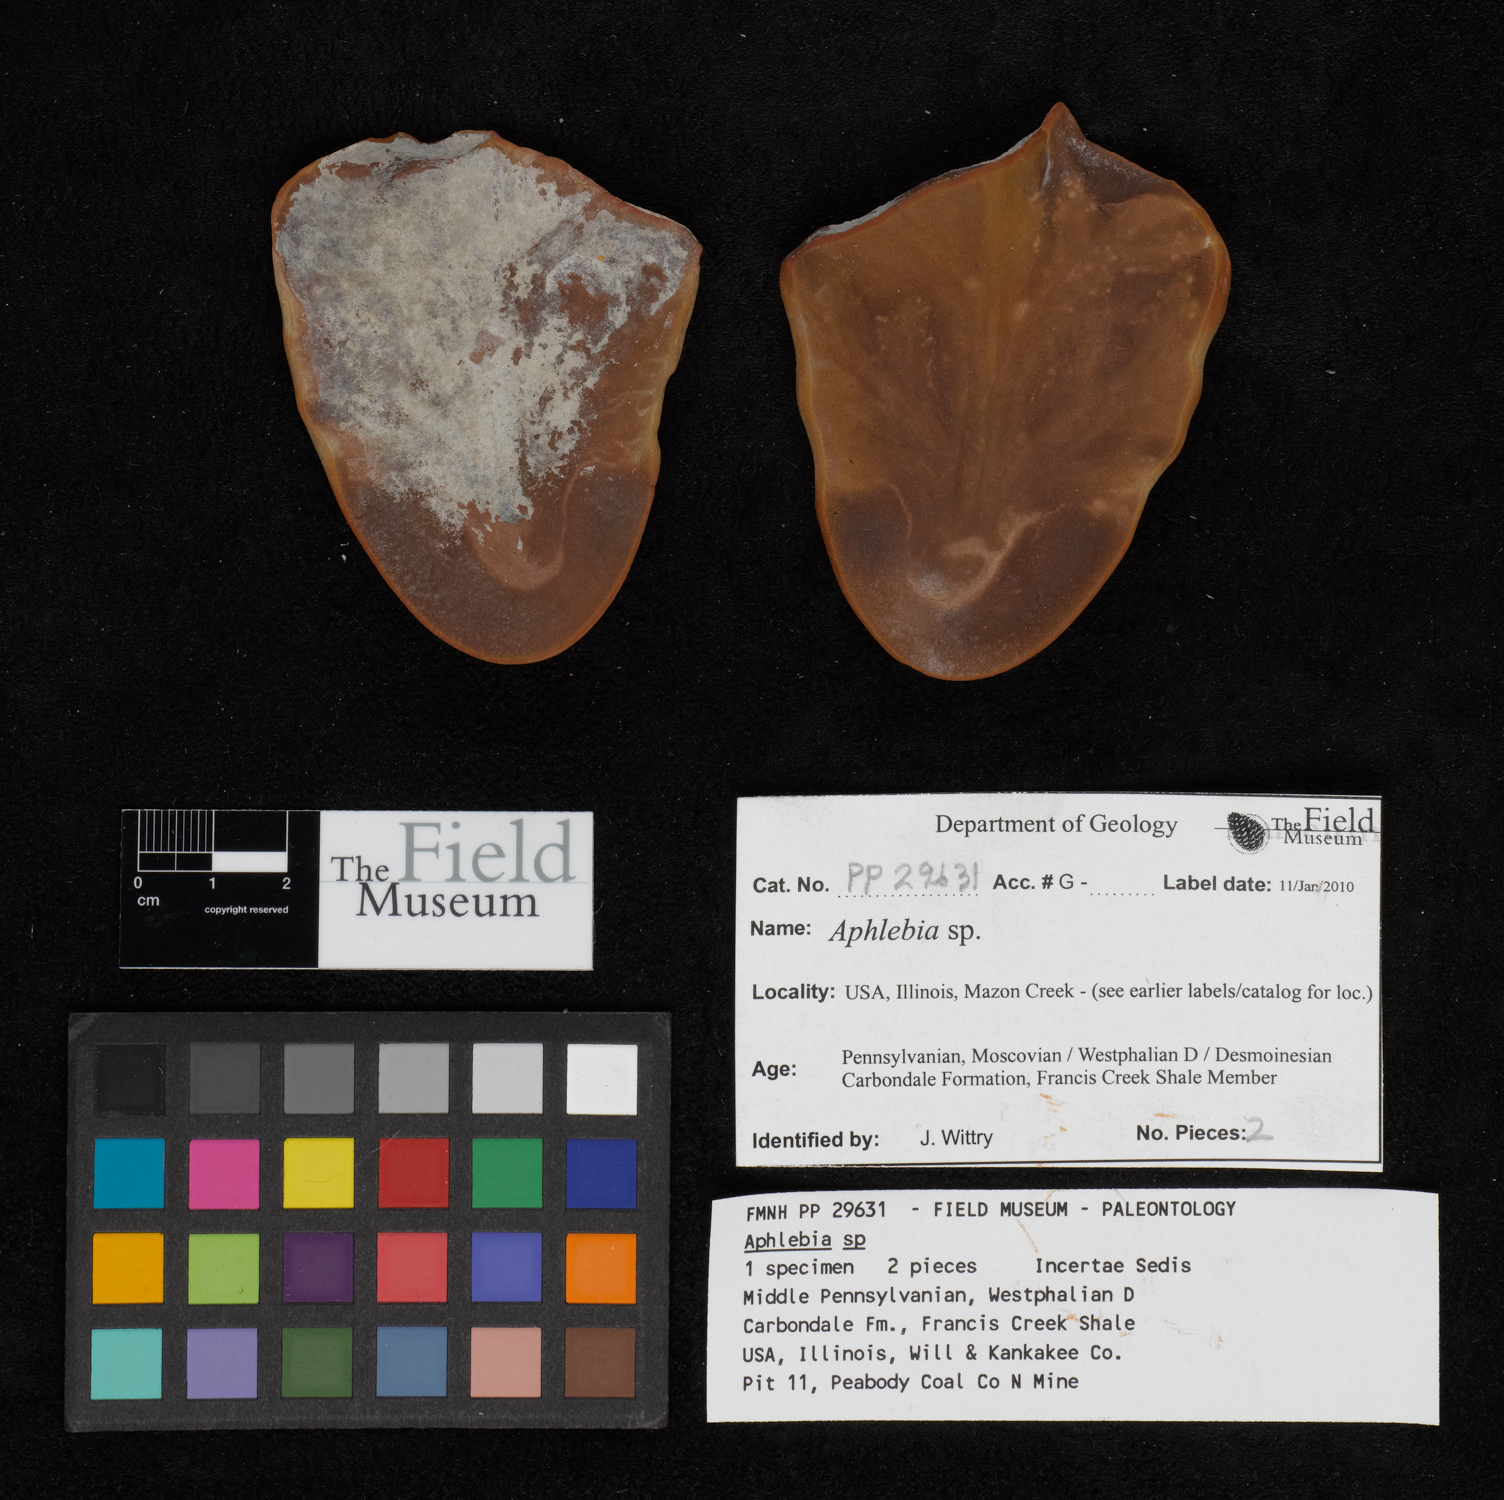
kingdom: Plantae
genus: Rhacophyllum
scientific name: Rhacophyllum
